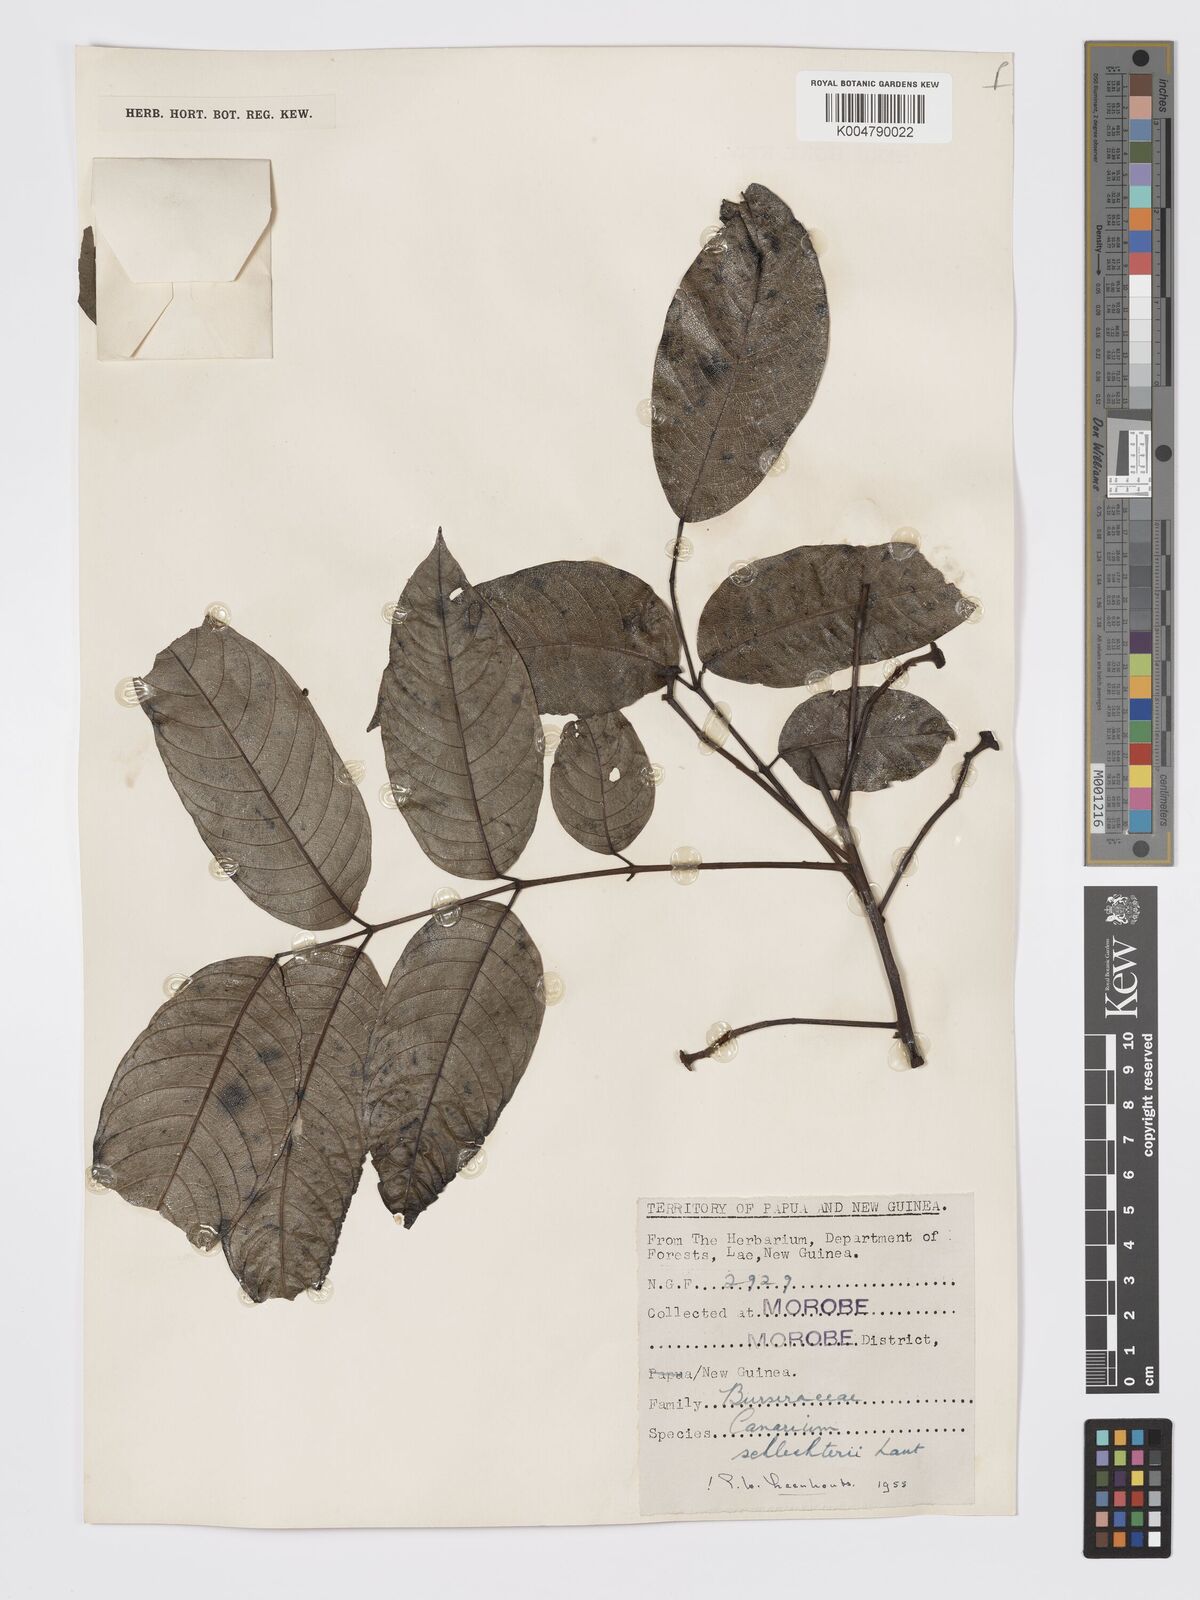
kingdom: Plantae
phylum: Tracheophyta
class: Magnoliopsida
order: Sapindales
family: Burseraceae
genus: Canarium
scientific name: Canarium schlechteri
